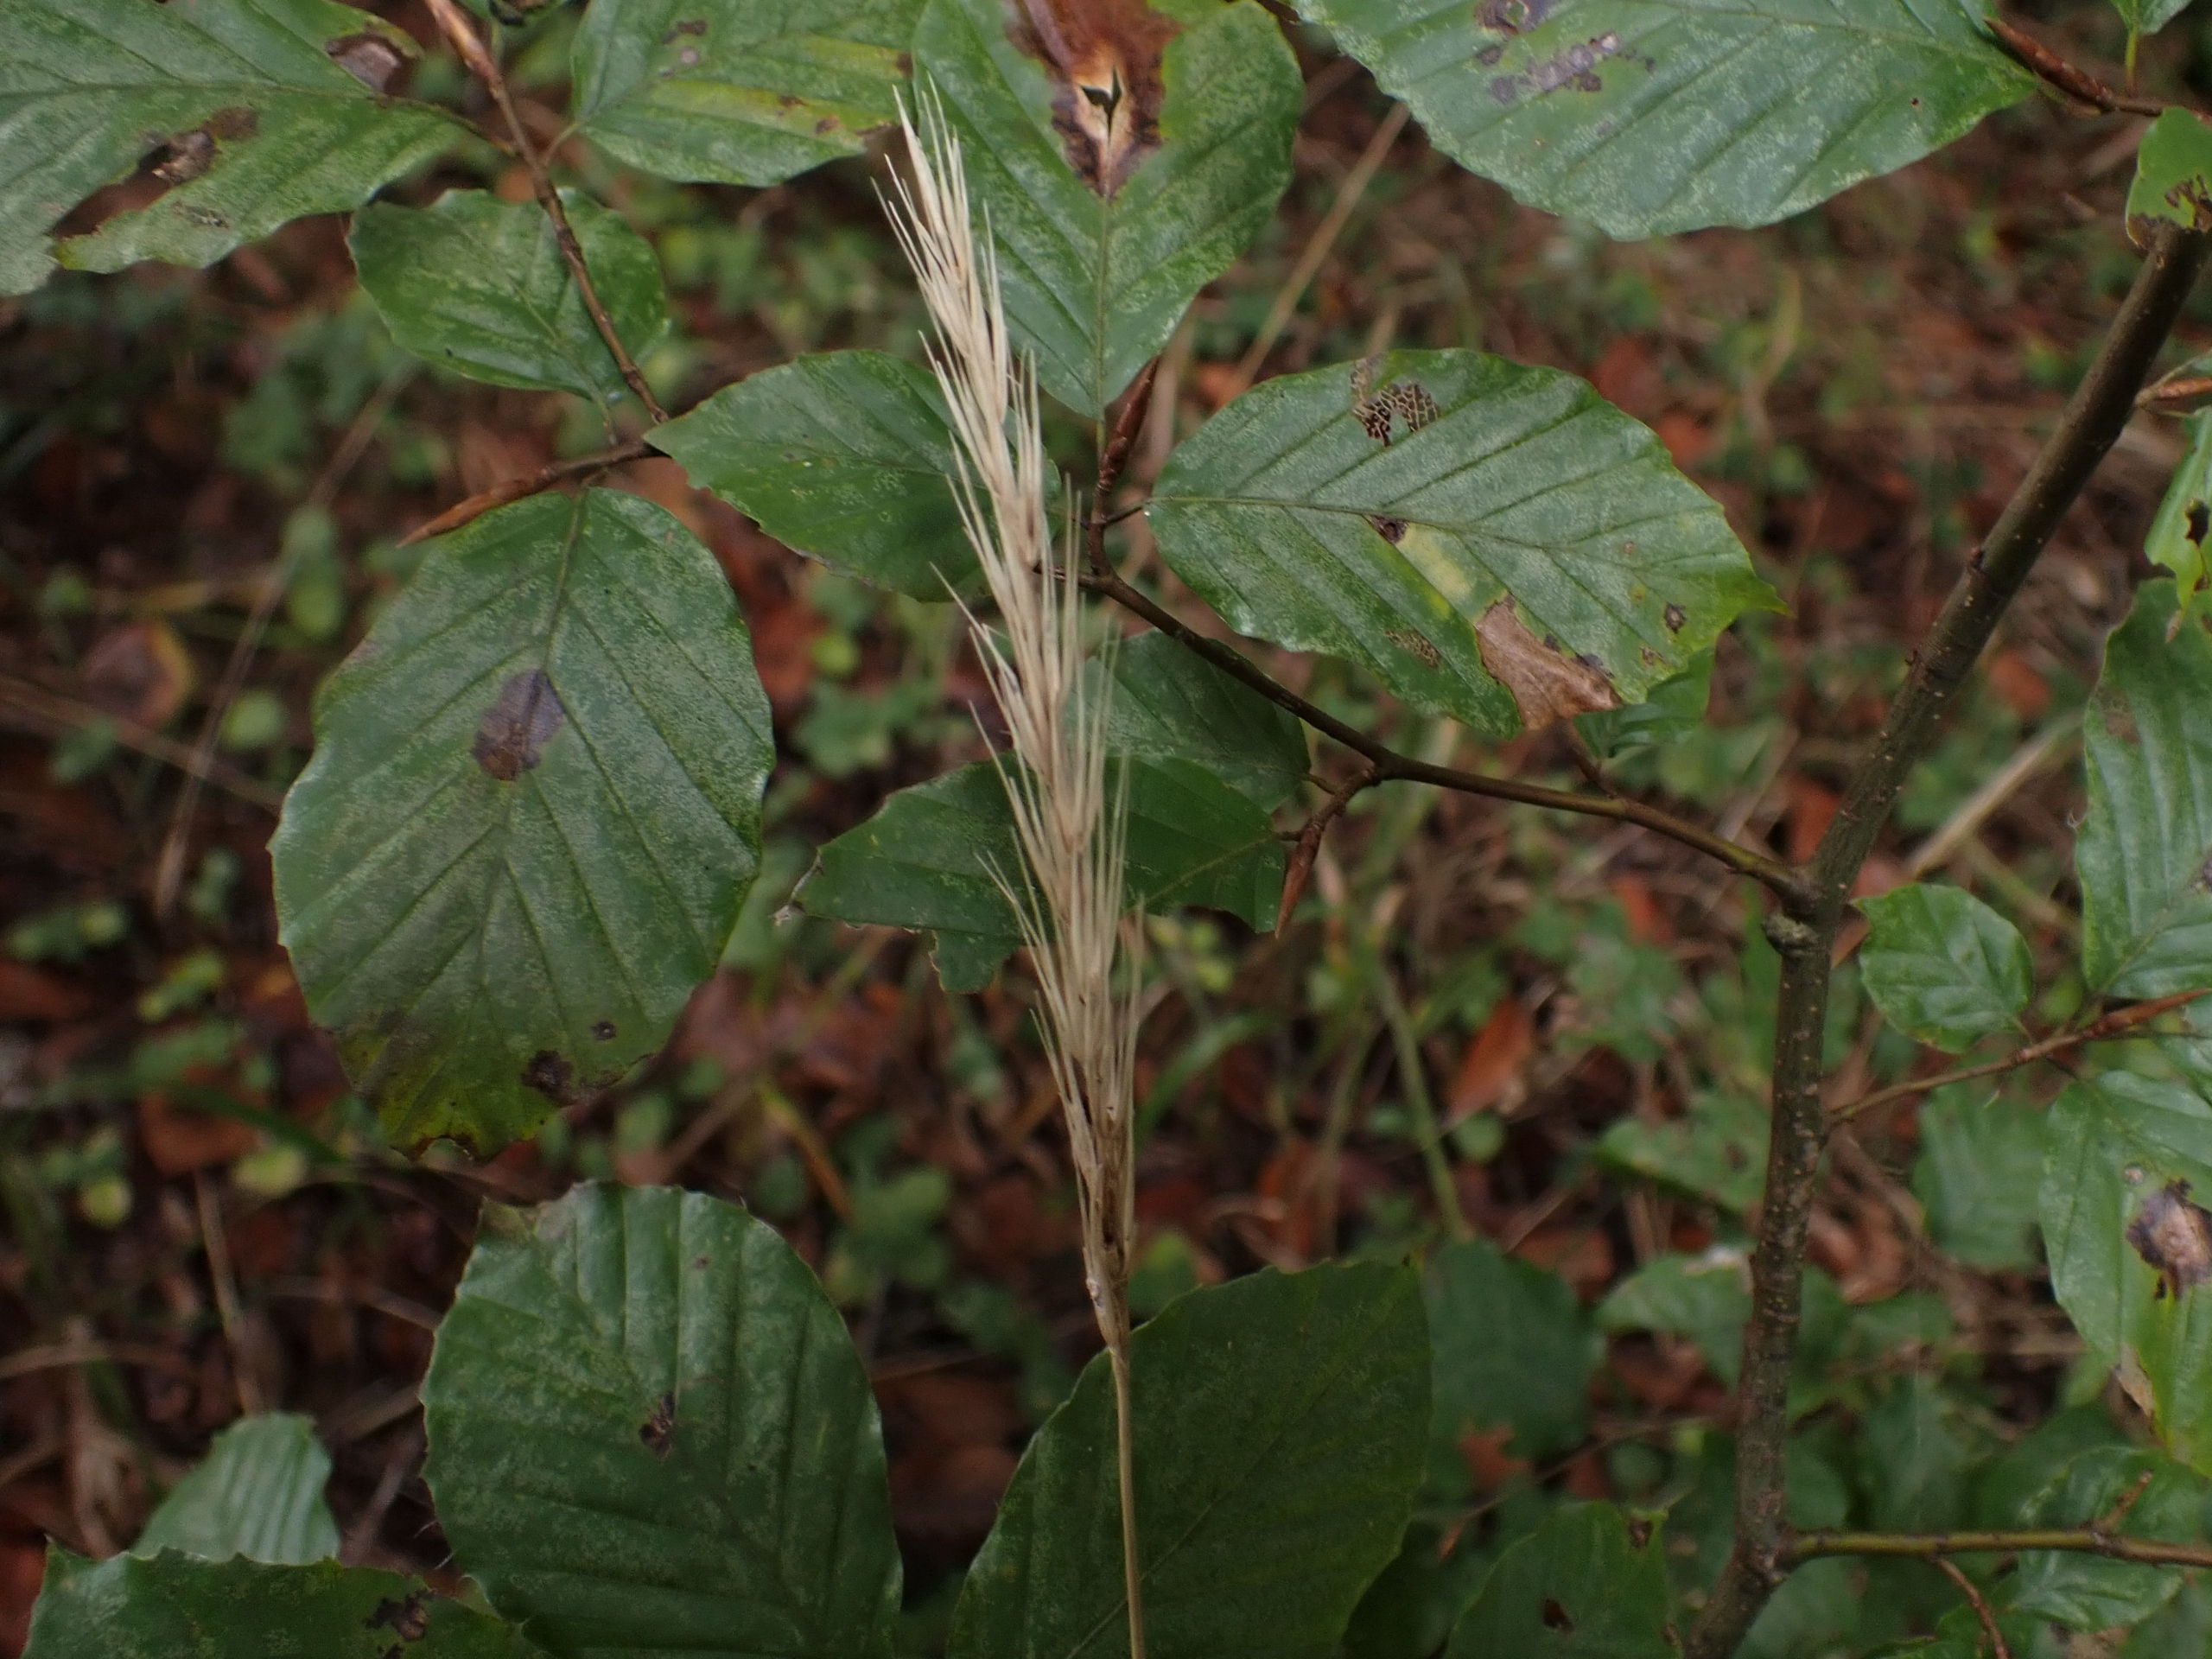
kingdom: Plantae
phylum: Tracheophyta
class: Liliopsida
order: Poales
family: Poaceae
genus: Hordelymus
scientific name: Hordelymus europaeus
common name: Skovbyg
